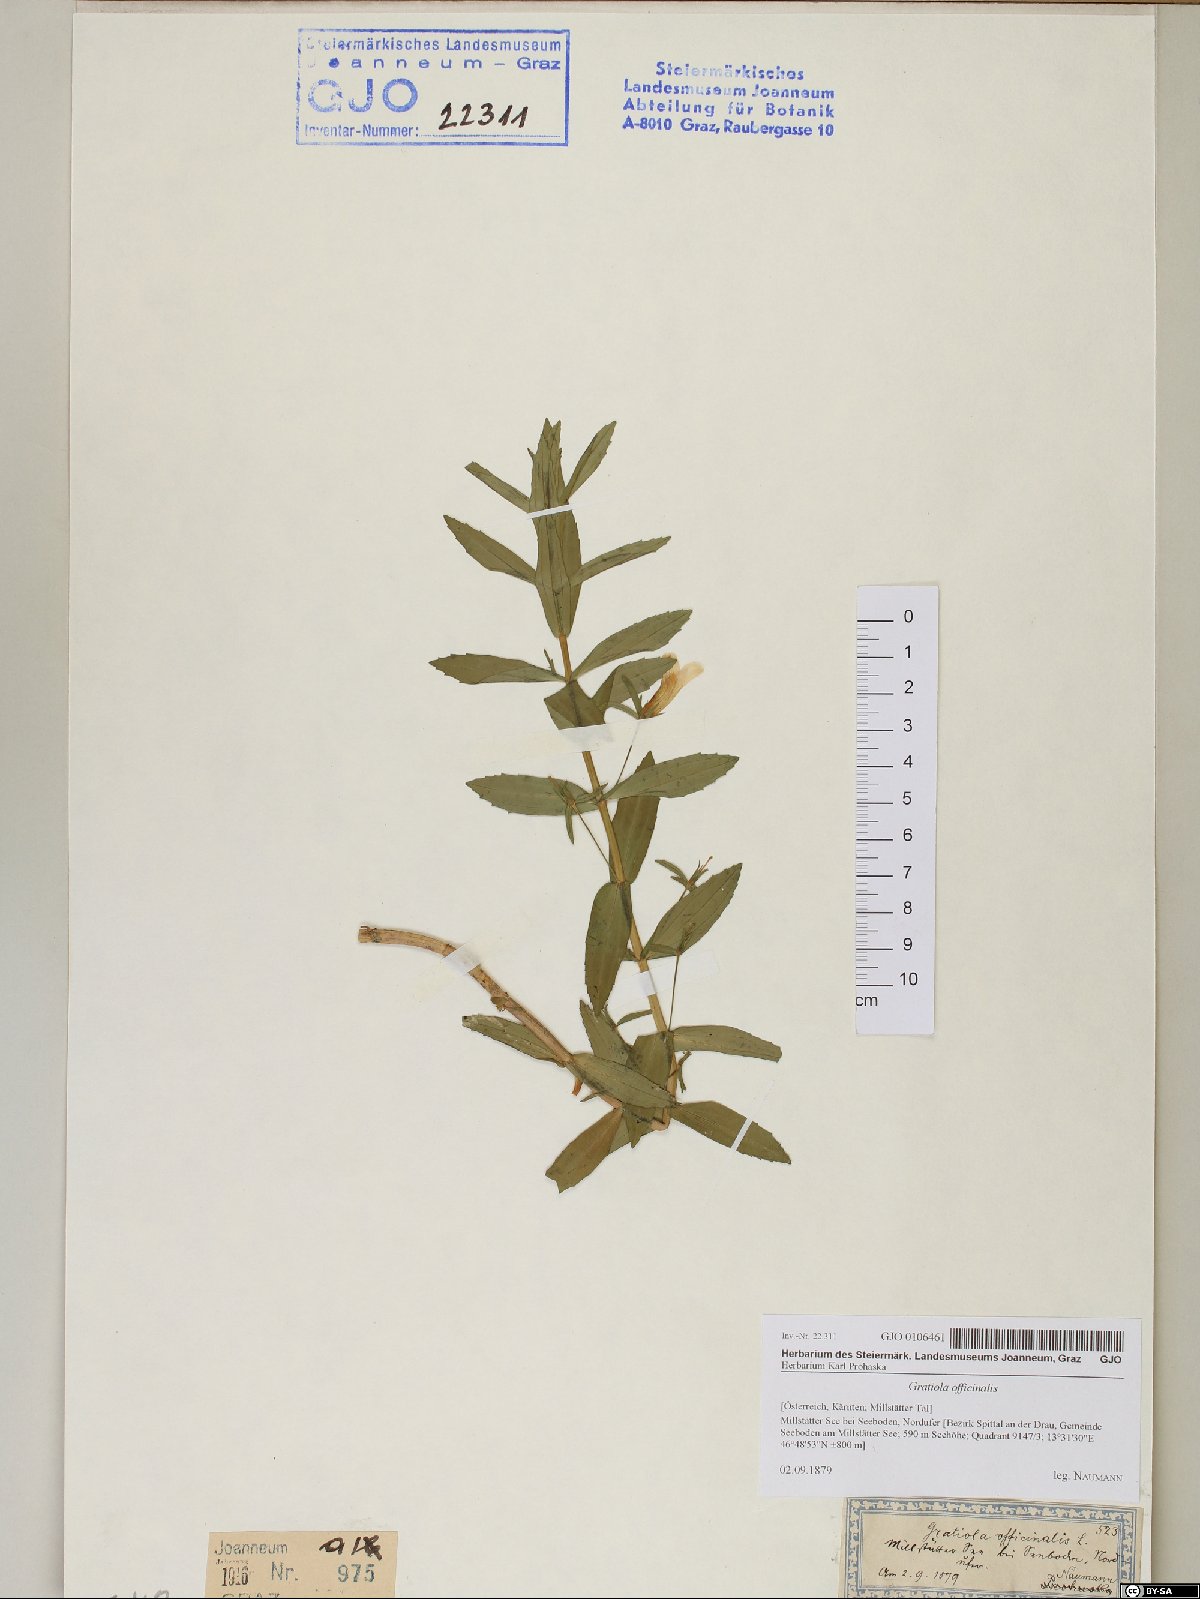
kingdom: Plantae
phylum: Tracheophyta
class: Magnoliopsida
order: Lamiales
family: Plantaginaceae
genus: Gratiola
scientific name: Gratiola officinalis
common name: Gratiola
